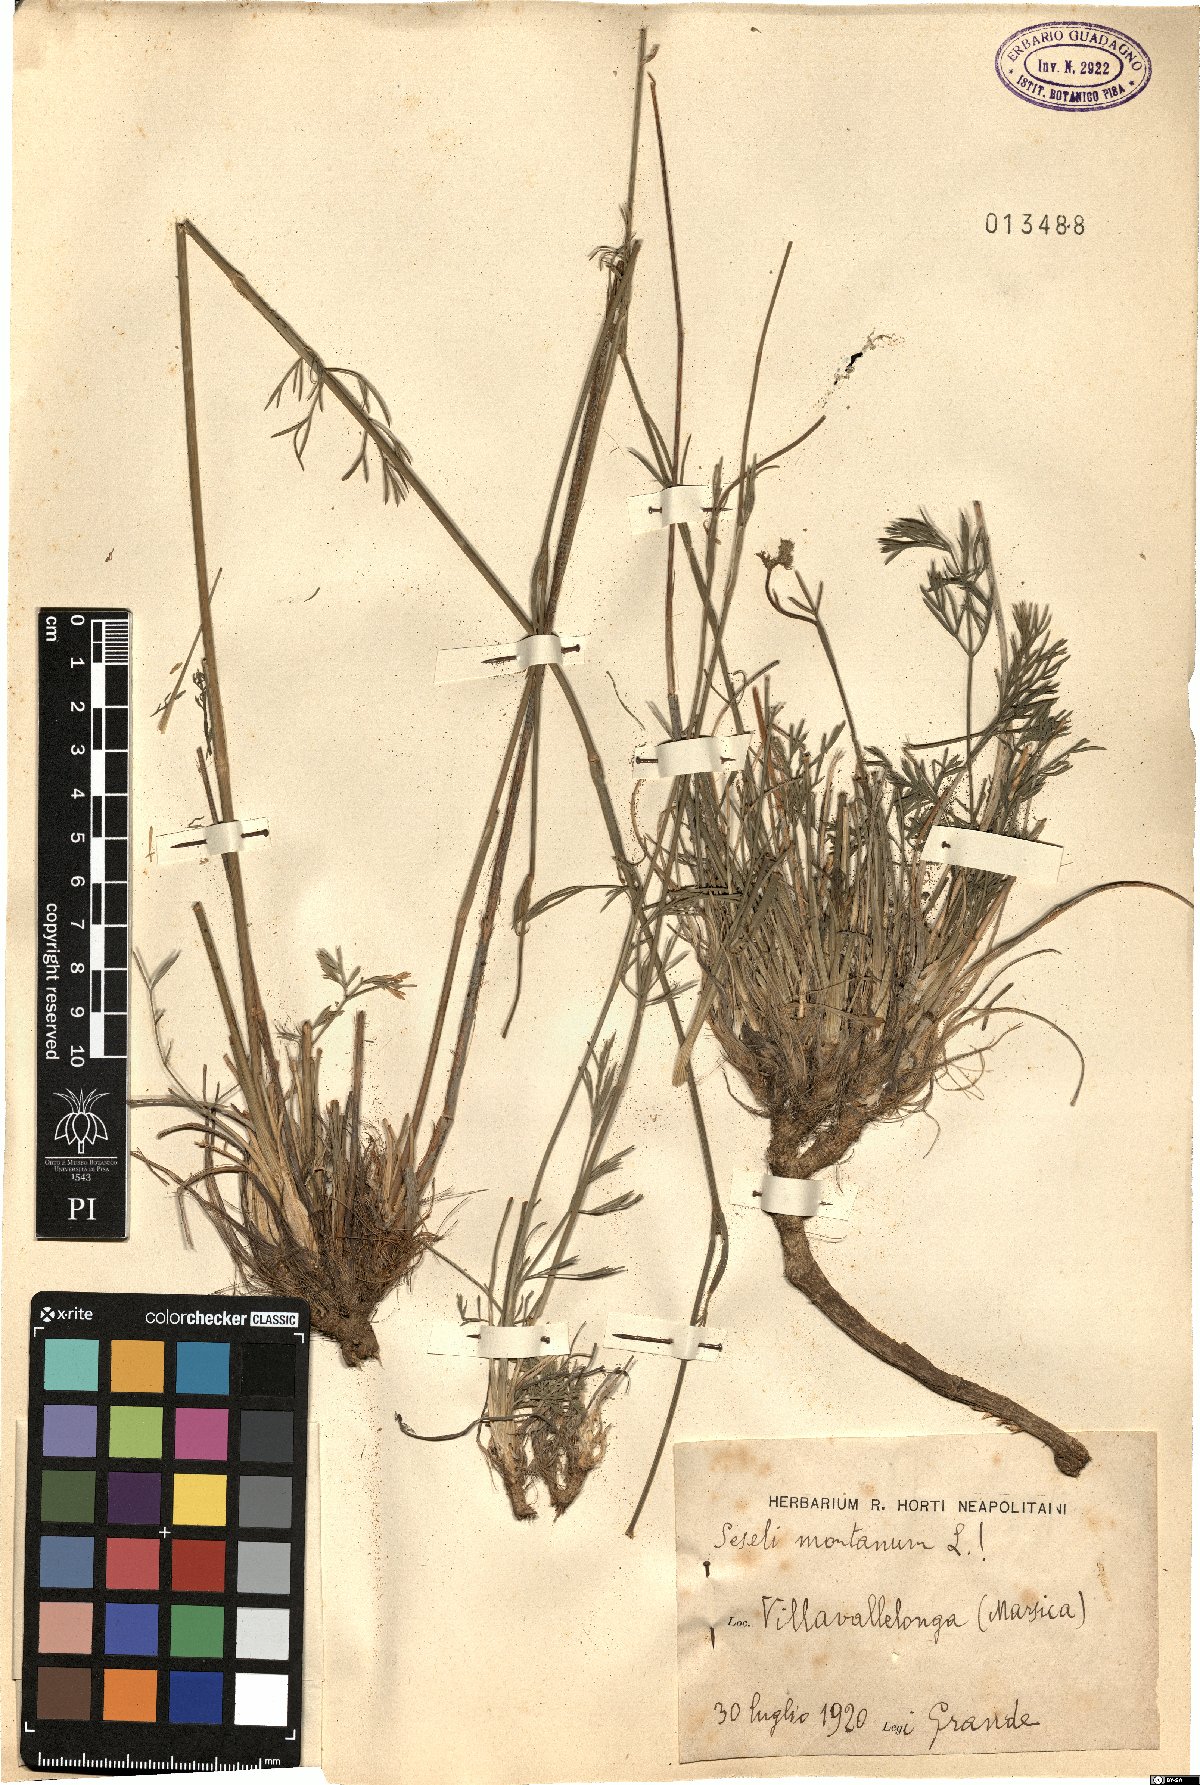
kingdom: Plantae
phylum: Tracheophyta
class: Magnoliopsida
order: Apiales
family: Apiaceae
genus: Seseli
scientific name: Seseli montanum
